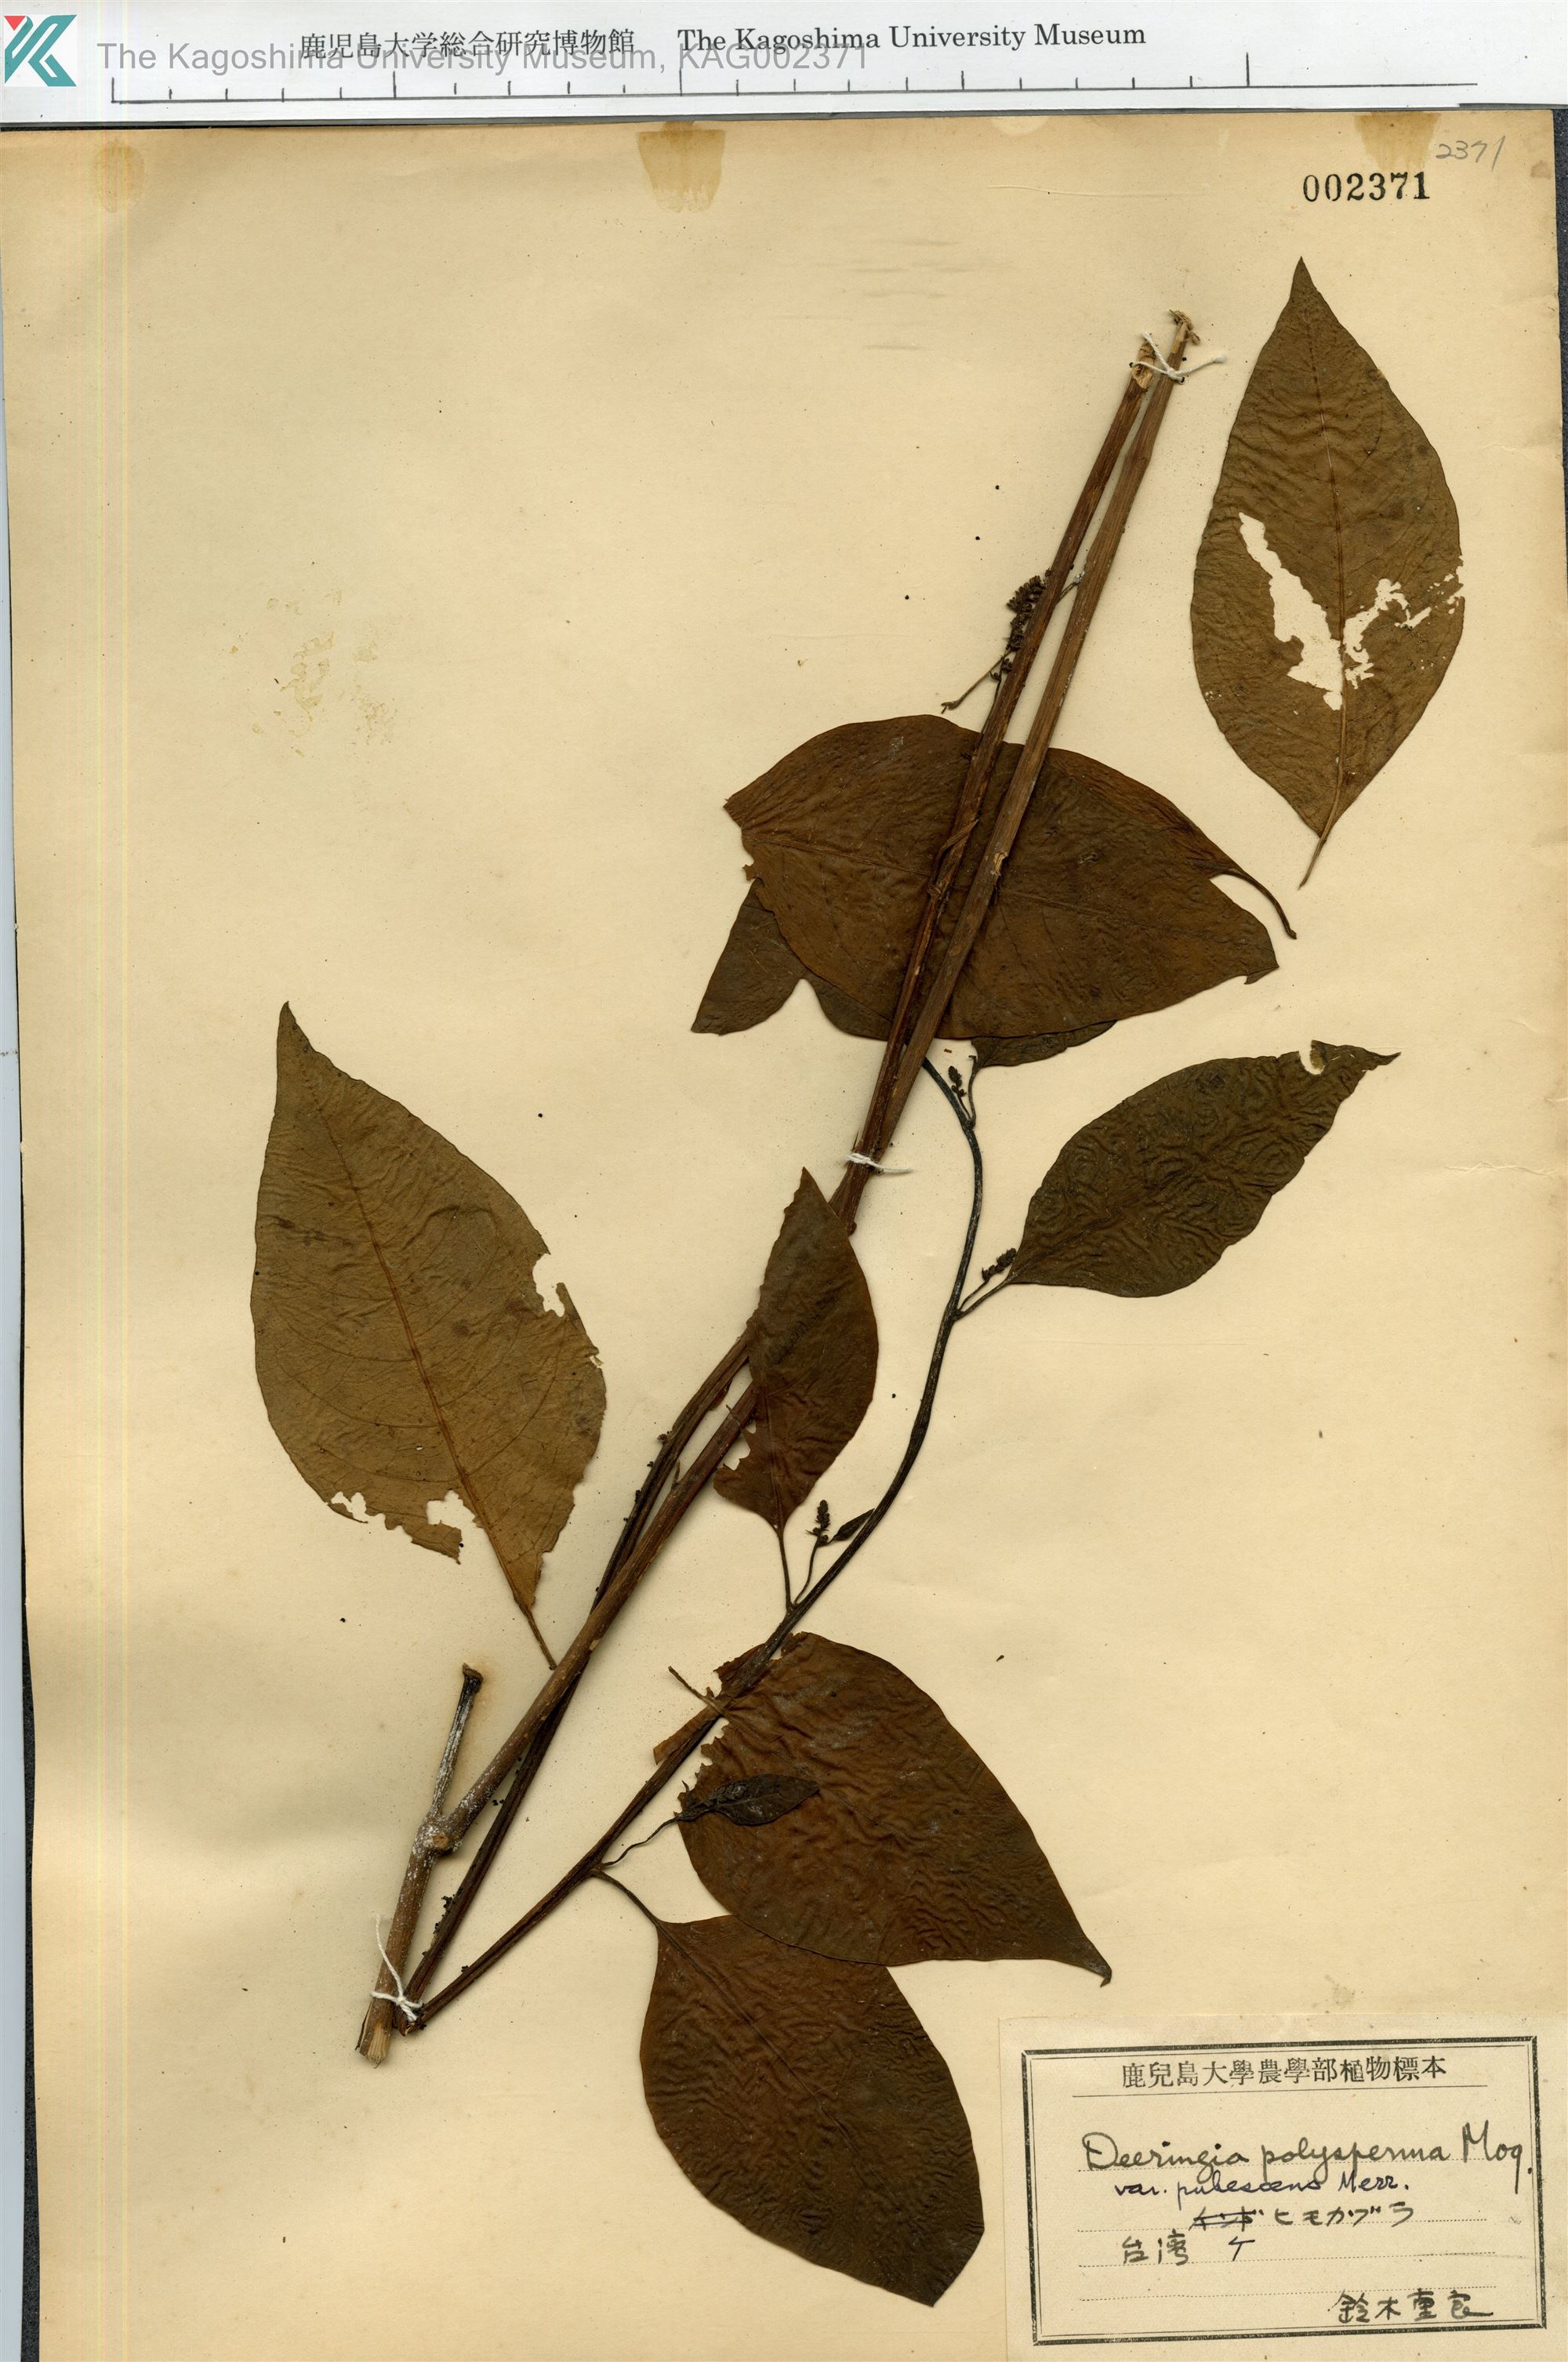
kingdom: Plantae
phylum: Tracheophyta
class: Magnoliopsida
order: Caryophyllales
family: Amaranthaceae
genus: Deeringia
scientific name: Deeringia polysperma
